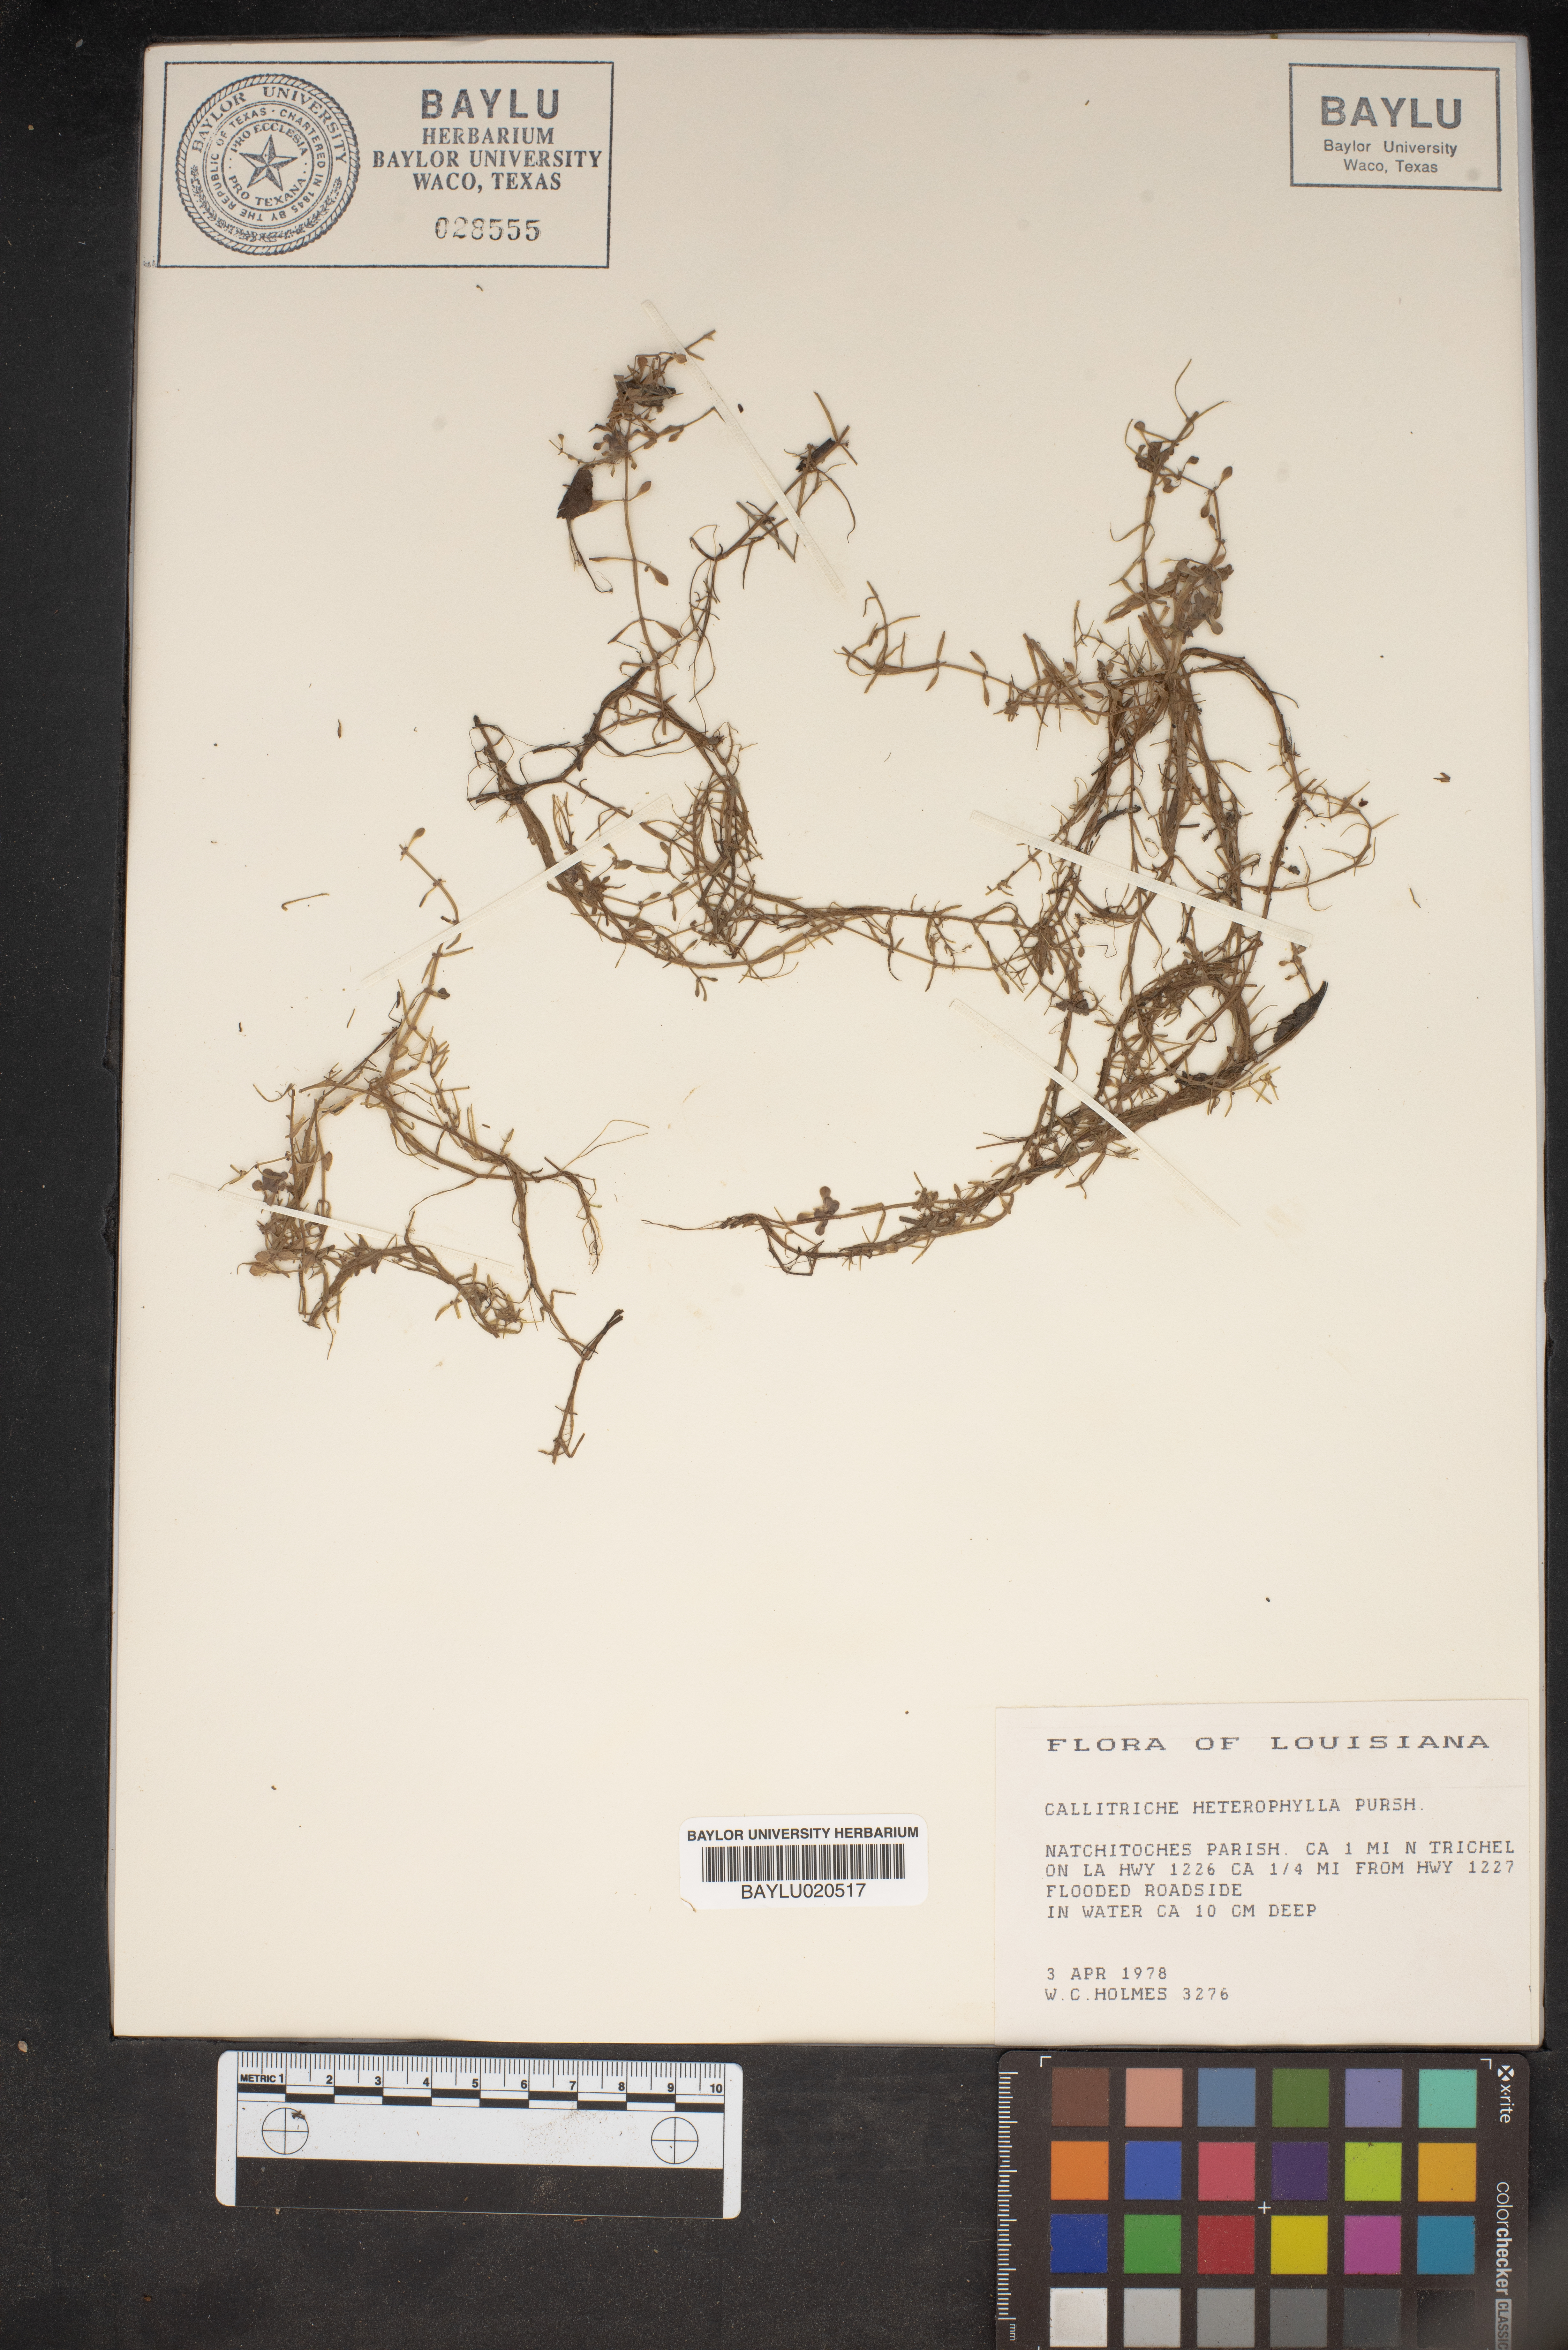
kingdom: Plantae
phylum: Tracheophyta
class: Magnoliopsida
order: Lamiales
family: Plantaginaceae
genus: Callitriche
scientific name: Callitriche heterophylla
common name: Two-headed water-starwort
